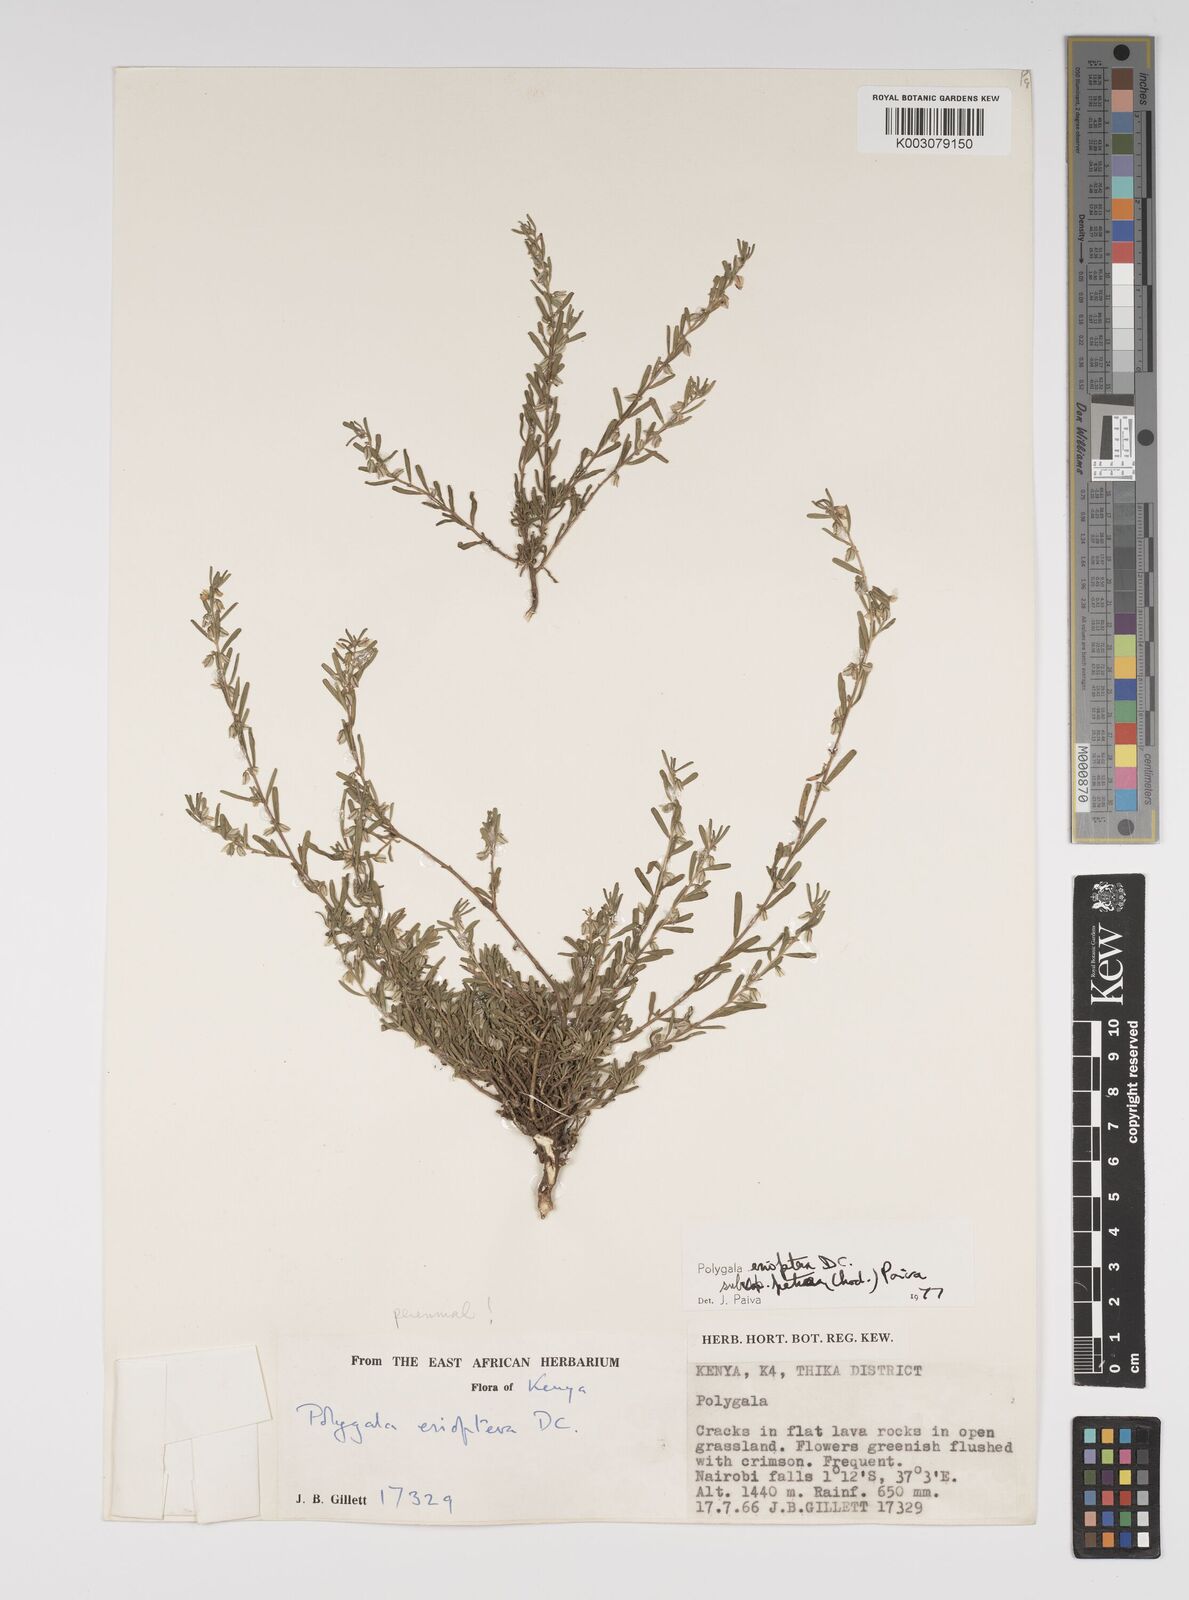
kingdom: Plantae
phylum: Tracheophyta
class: Magnoliopsida
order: Fabales
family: Polygalaceae
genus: Polygala
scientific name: Polygala erioptera
